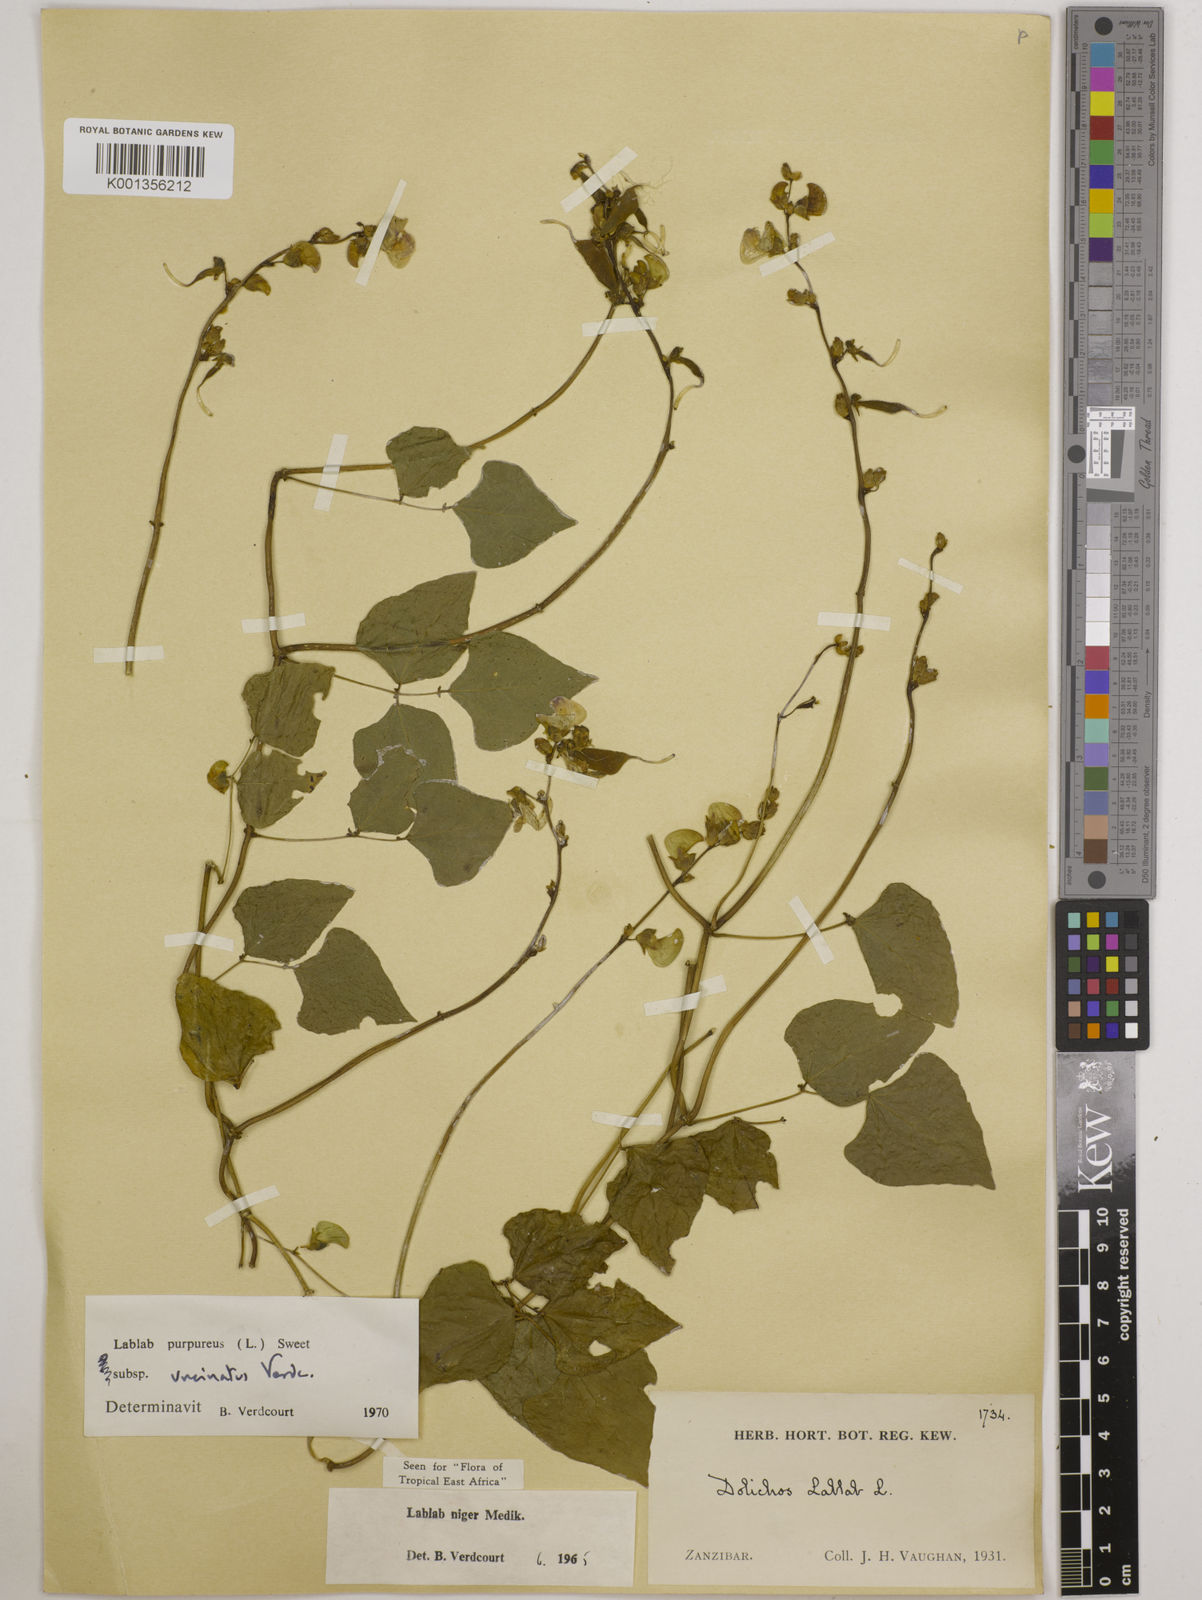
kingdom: Plantae
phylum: Tracheophyta
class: Magnoliopsida
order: Fabales
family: Fabaceae
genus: Lablab
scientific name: Lablab purpureus
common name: Lablab-bean
